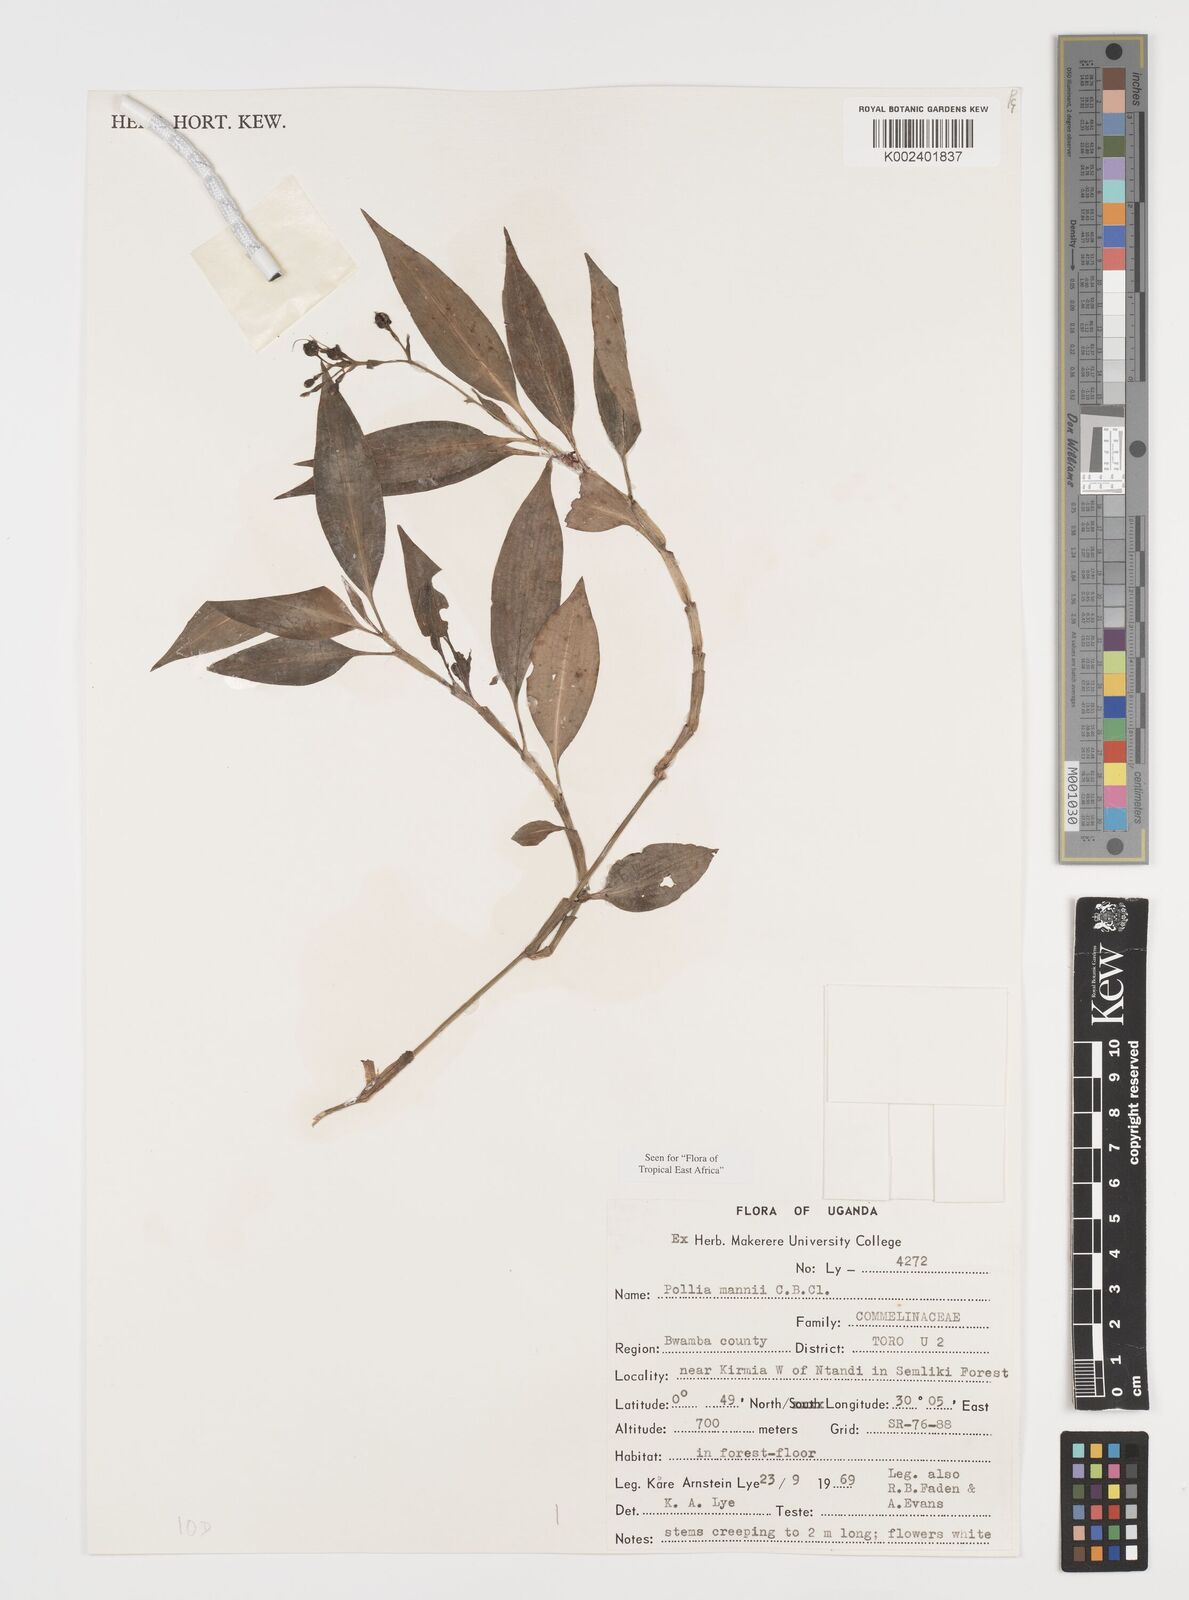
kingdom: Plantae
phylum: Tracheophyta
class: Liliopsida
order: Commelinales
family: Commelinaceae
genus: Pollia
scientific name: Pollia mannii
